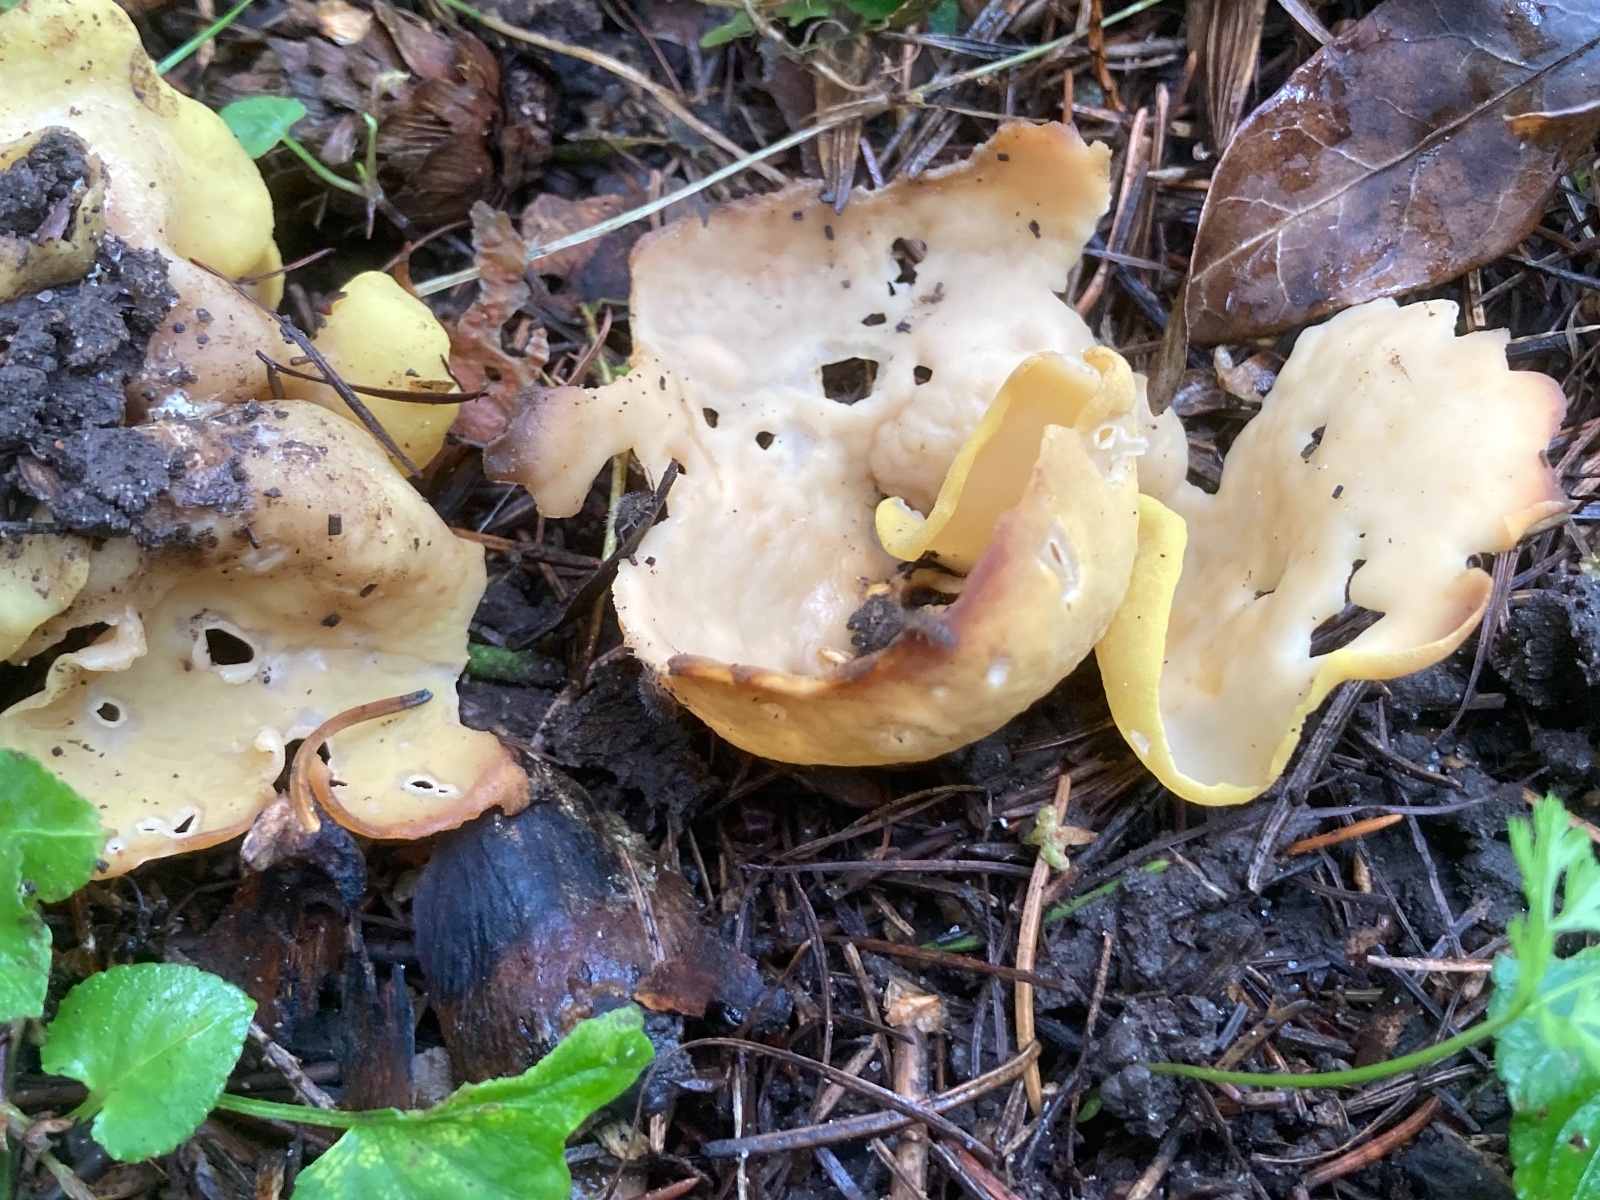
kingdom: Fungi
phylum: Ascomycota
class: Pezizomycetes
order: Pezizales
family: Otideaceae
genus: Otidea
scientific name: Otidea cantharella
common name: citrongul ørebæger
